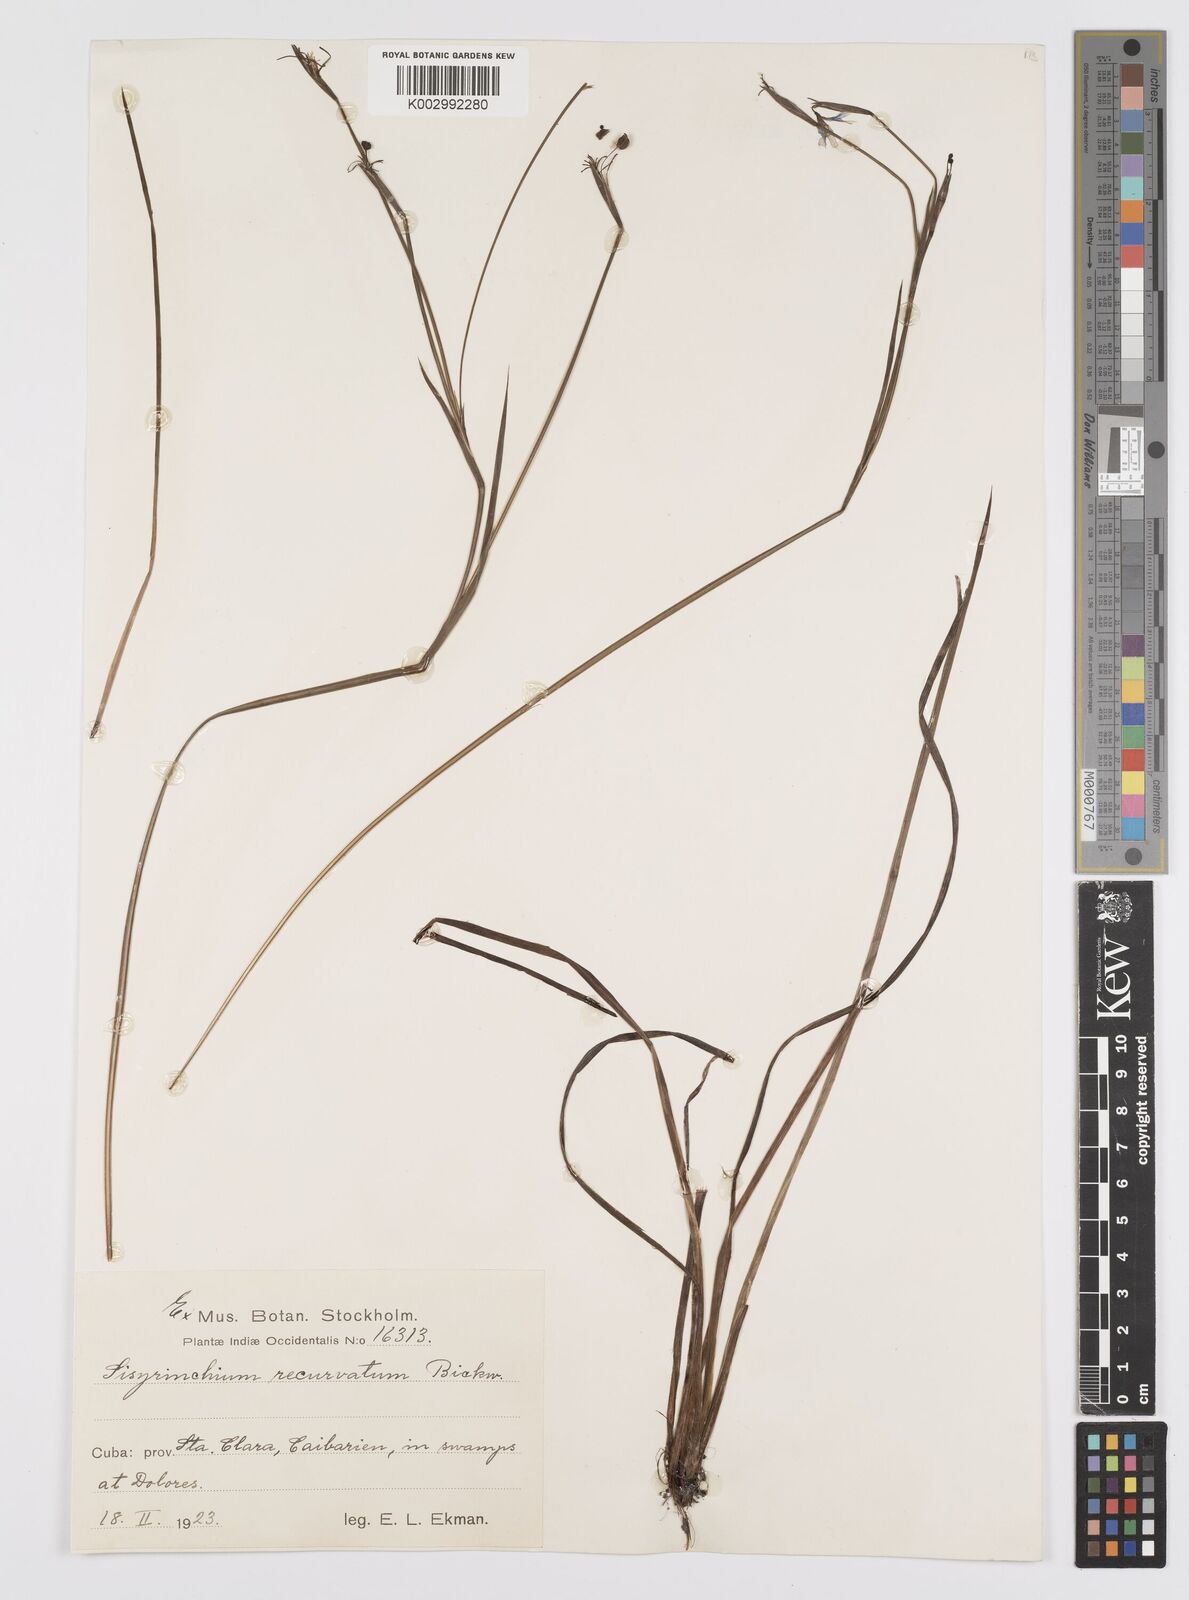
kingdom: Plantae
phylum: Tracheophyta
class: Liliopsida
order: Asparagales
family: Iridaceae
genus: Sisyrinchium
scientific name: Sisyrinchium miamiense
